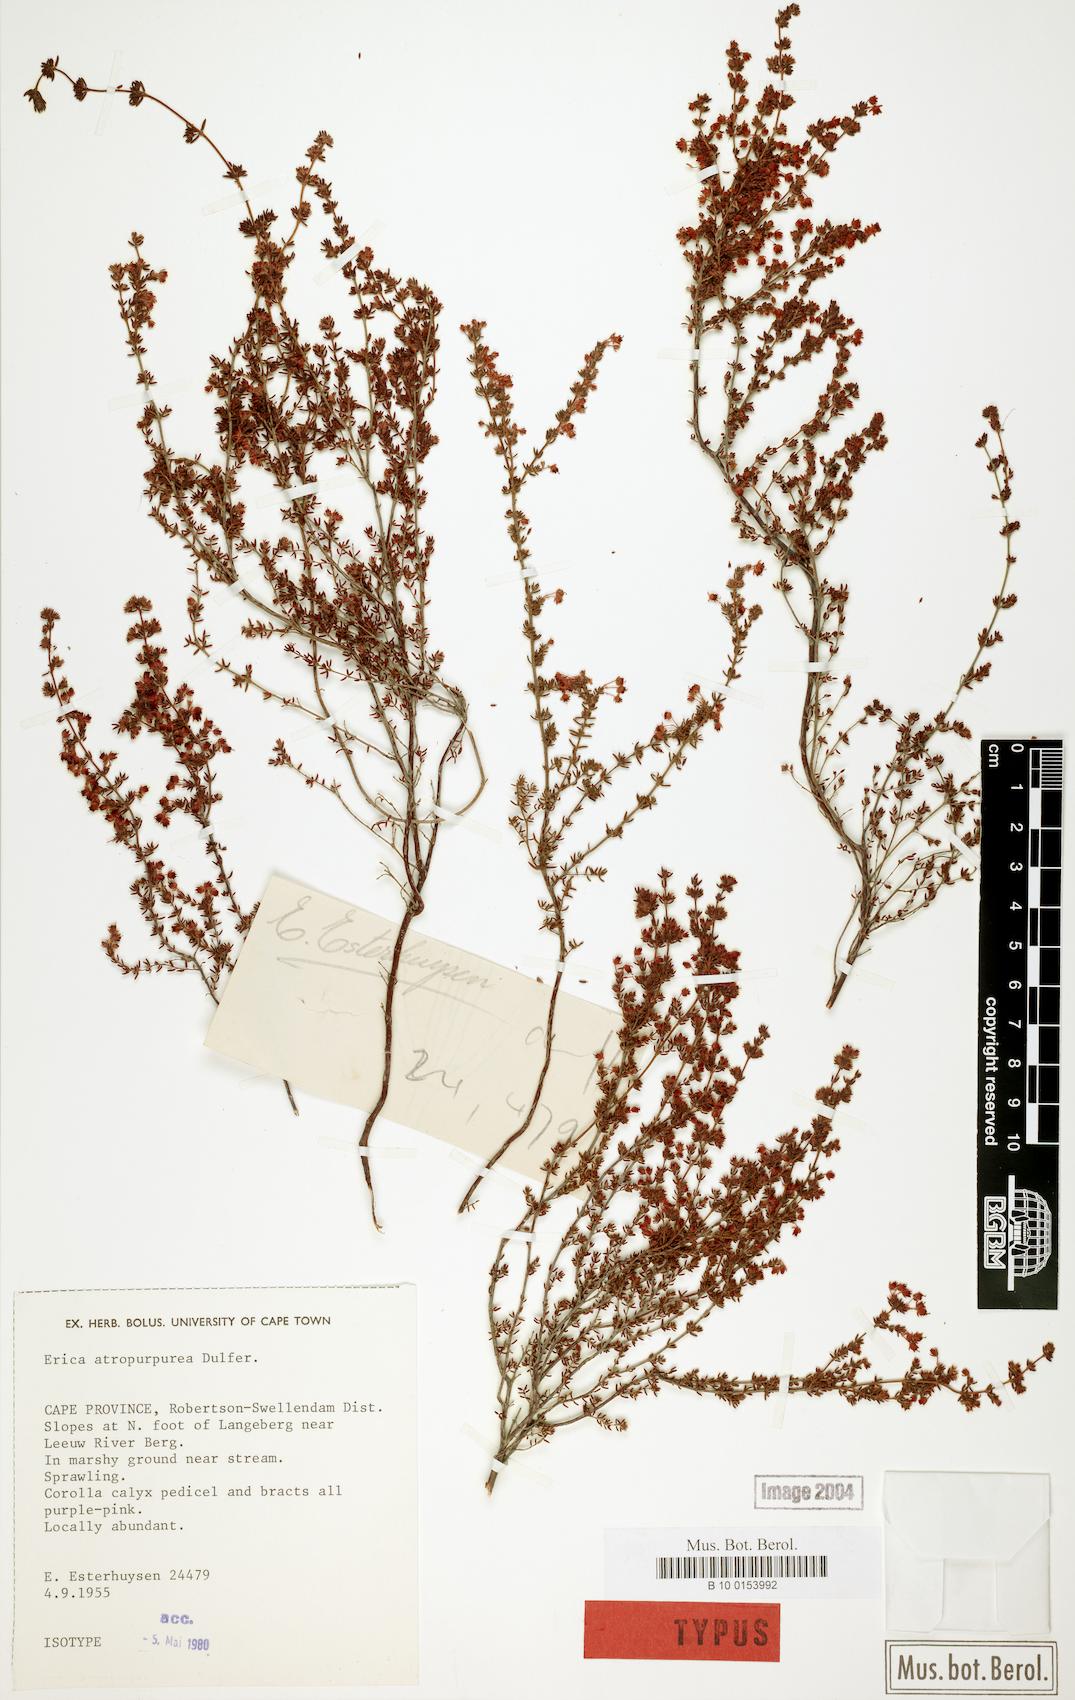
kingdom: Plantae
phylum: Tracheophyta
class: Magnoliopsida
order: Ericales
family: Ericaceae
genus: Erica
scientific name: Erica atropurpurea
